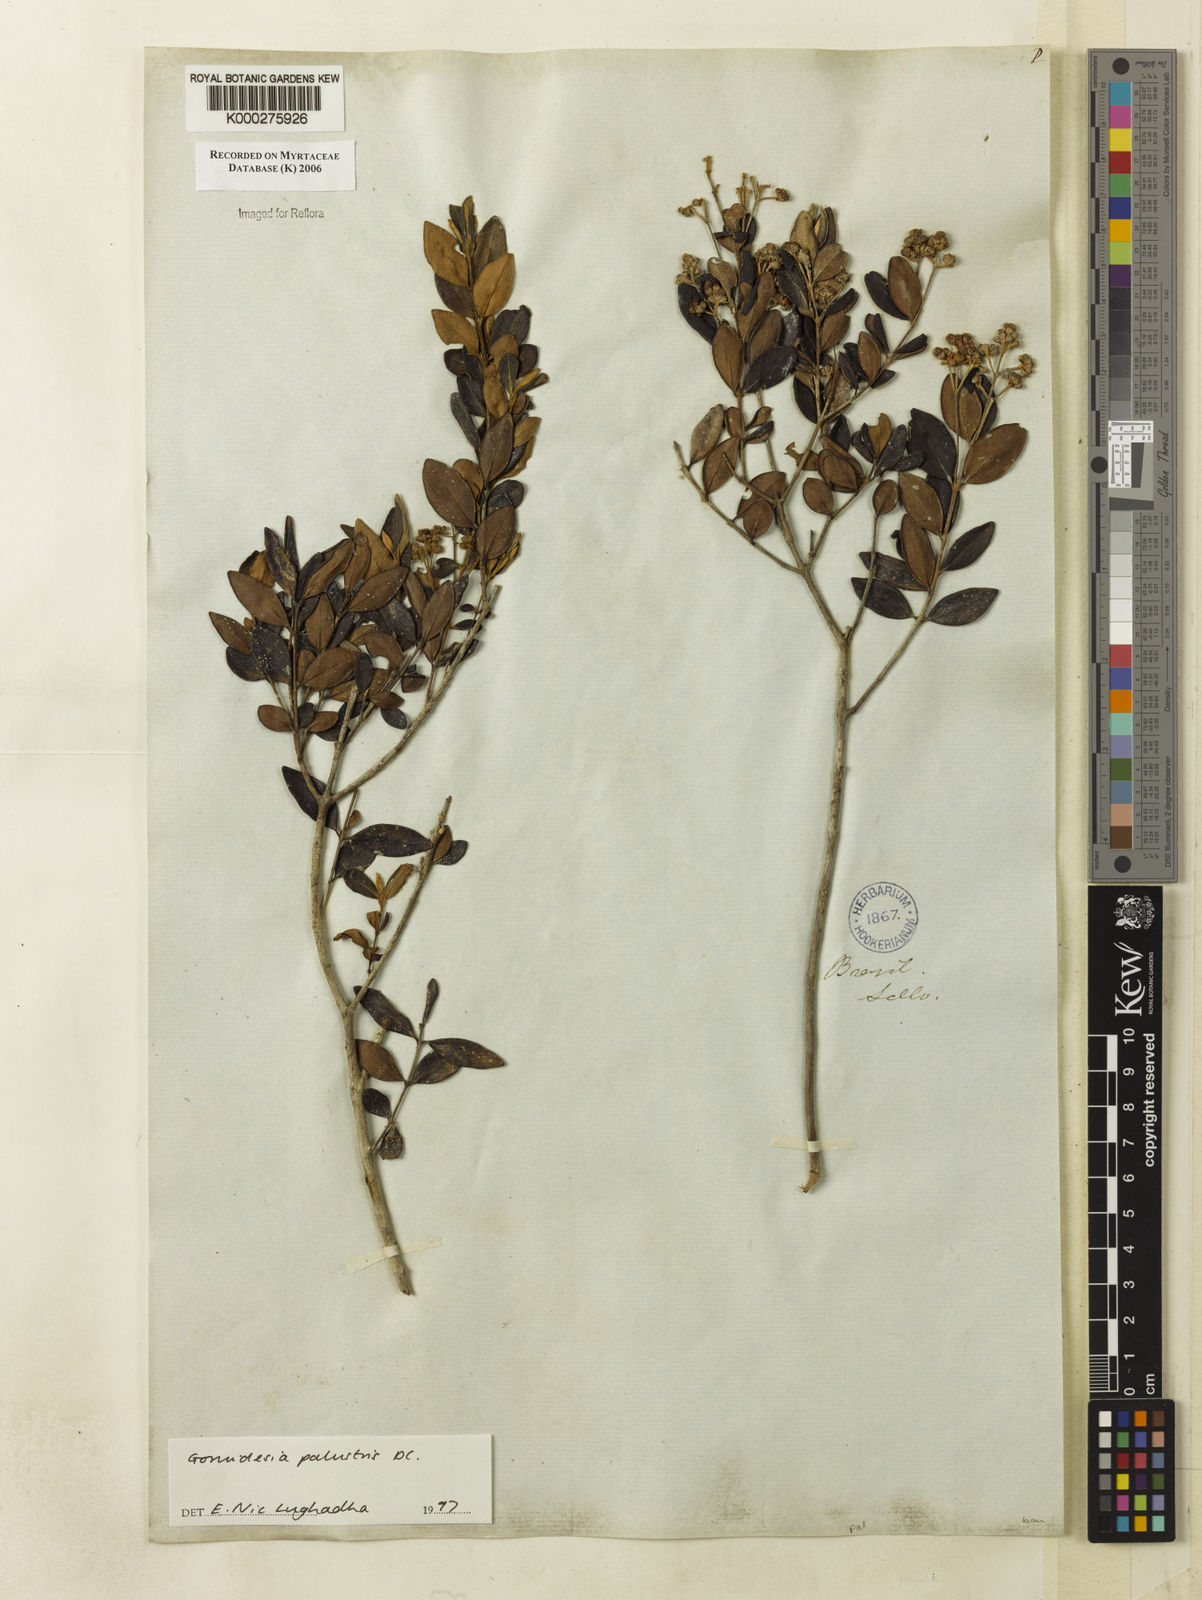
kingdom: Plantae
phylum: Tracheophyta
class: Magnoliopsida
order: Myrtales
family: Myrtaceae
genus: Myrcia
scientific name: Myrcia palustris
